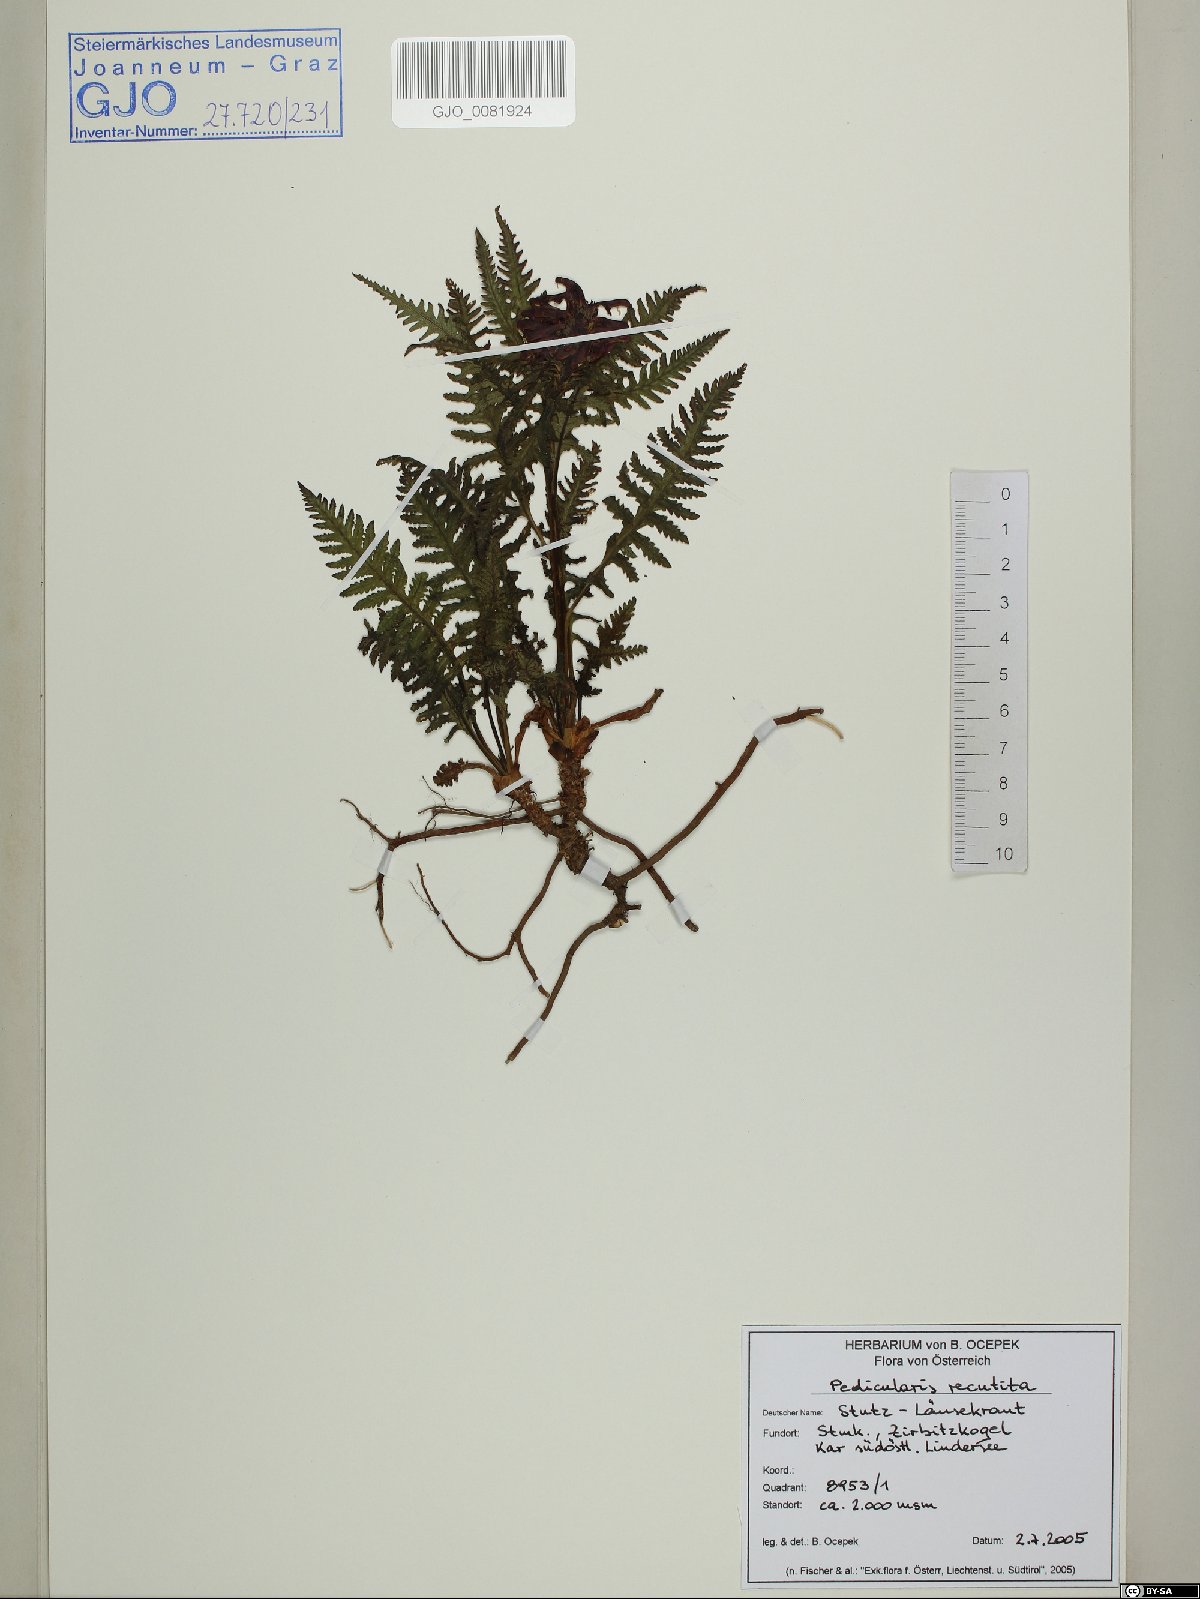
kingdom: Plantae
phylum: Tracheophyta
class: Magnoliopsida
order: Lamiales
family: Orobanchaceae
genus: Pedicularis
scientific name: Pedicularis recutita
